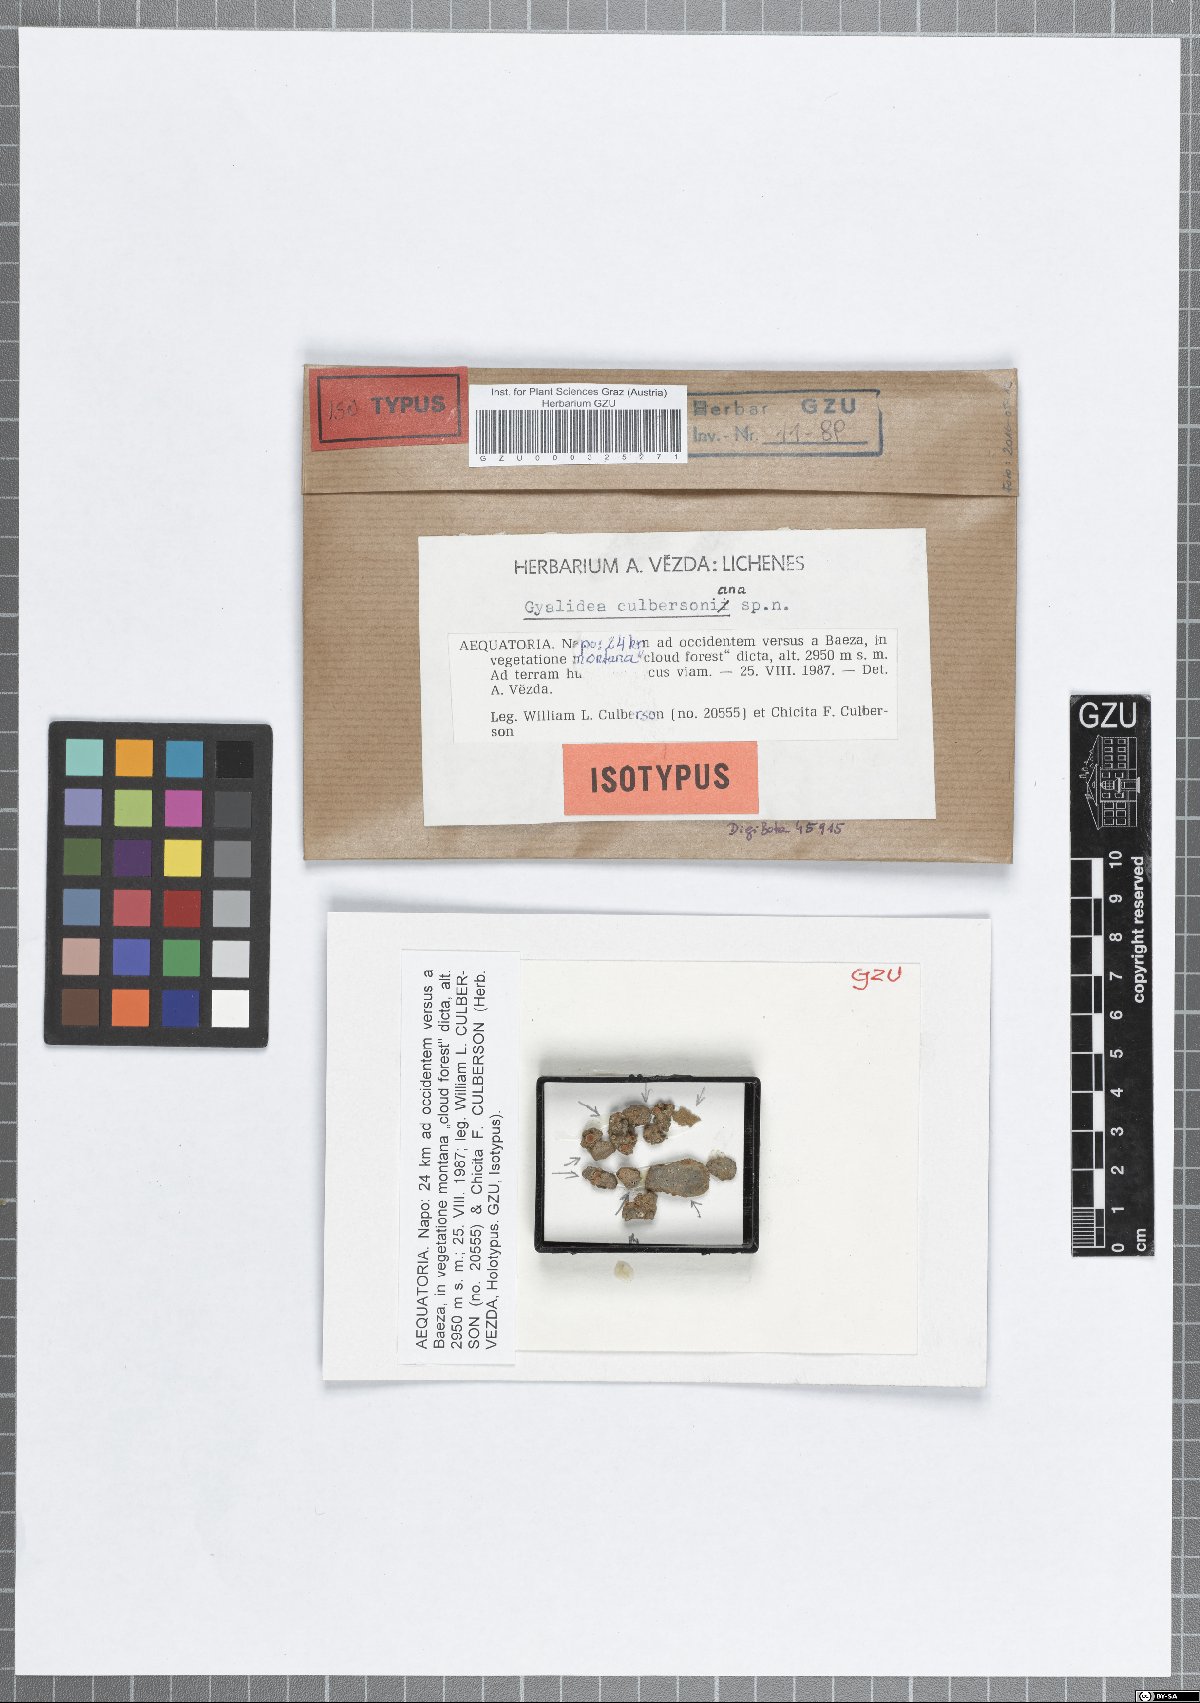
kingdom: Fungi
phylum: Ascomycota
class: Lecanoromycetes
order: Ostropales
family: Gomphillaceae
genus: Gyalidea
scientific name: Gyalidea culbersoniana
